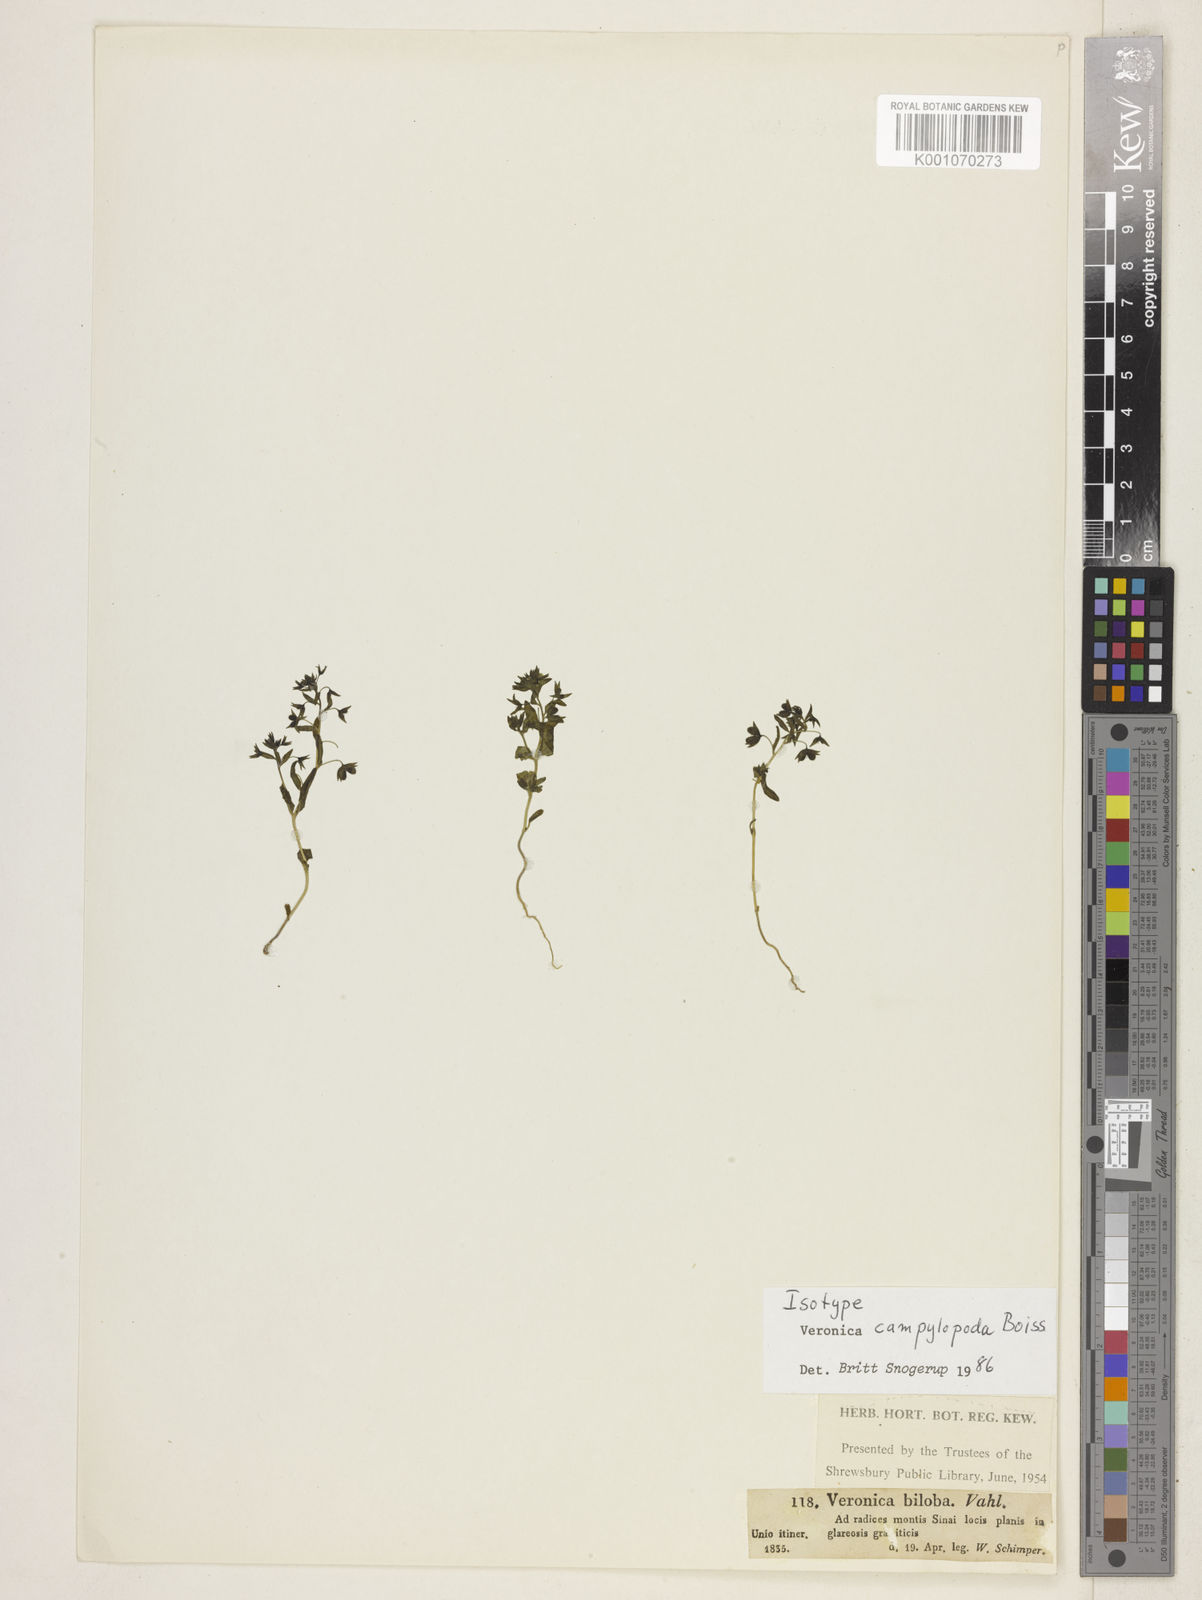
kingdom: Plantae
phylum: Tracheophyta
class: Magnoliopsida
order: Lamiales
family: Plantaginaceae
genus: Veronica
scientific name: Veronica campylopoda
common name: Bent-foot speedwell
